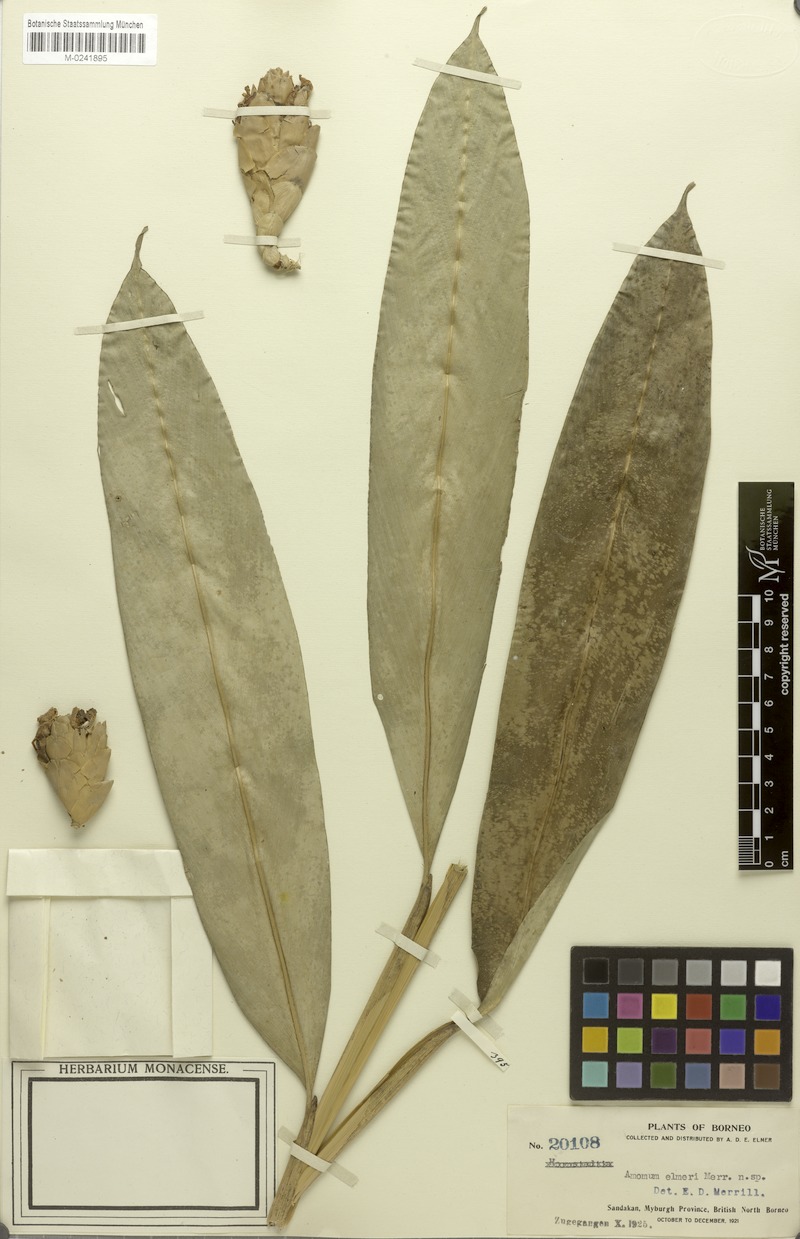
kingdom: Plantae
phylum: Tracheophyta
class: Liliopsida
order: Zingiberales
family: Zingiberaceae
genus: Amomum
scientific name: Amomum
